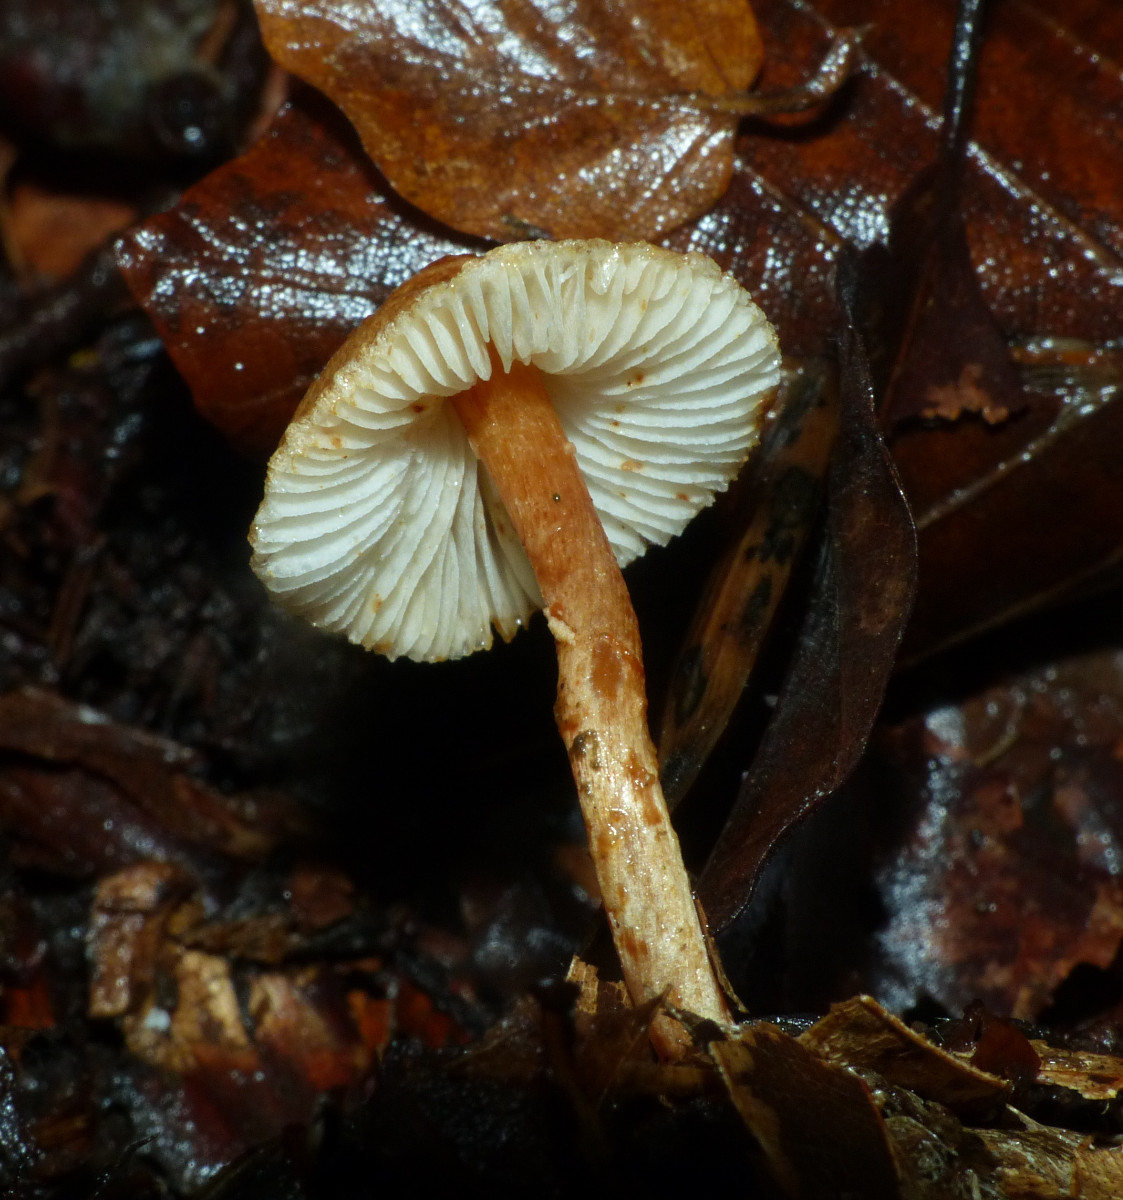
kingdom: Fungi
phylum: Basidiomycota
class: Agaricomycetes
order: Agaricales
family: Agaricaceae
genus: Leucocoprinus
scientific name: Leucocoprinus straminellus
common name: rustbrun parasolhat
